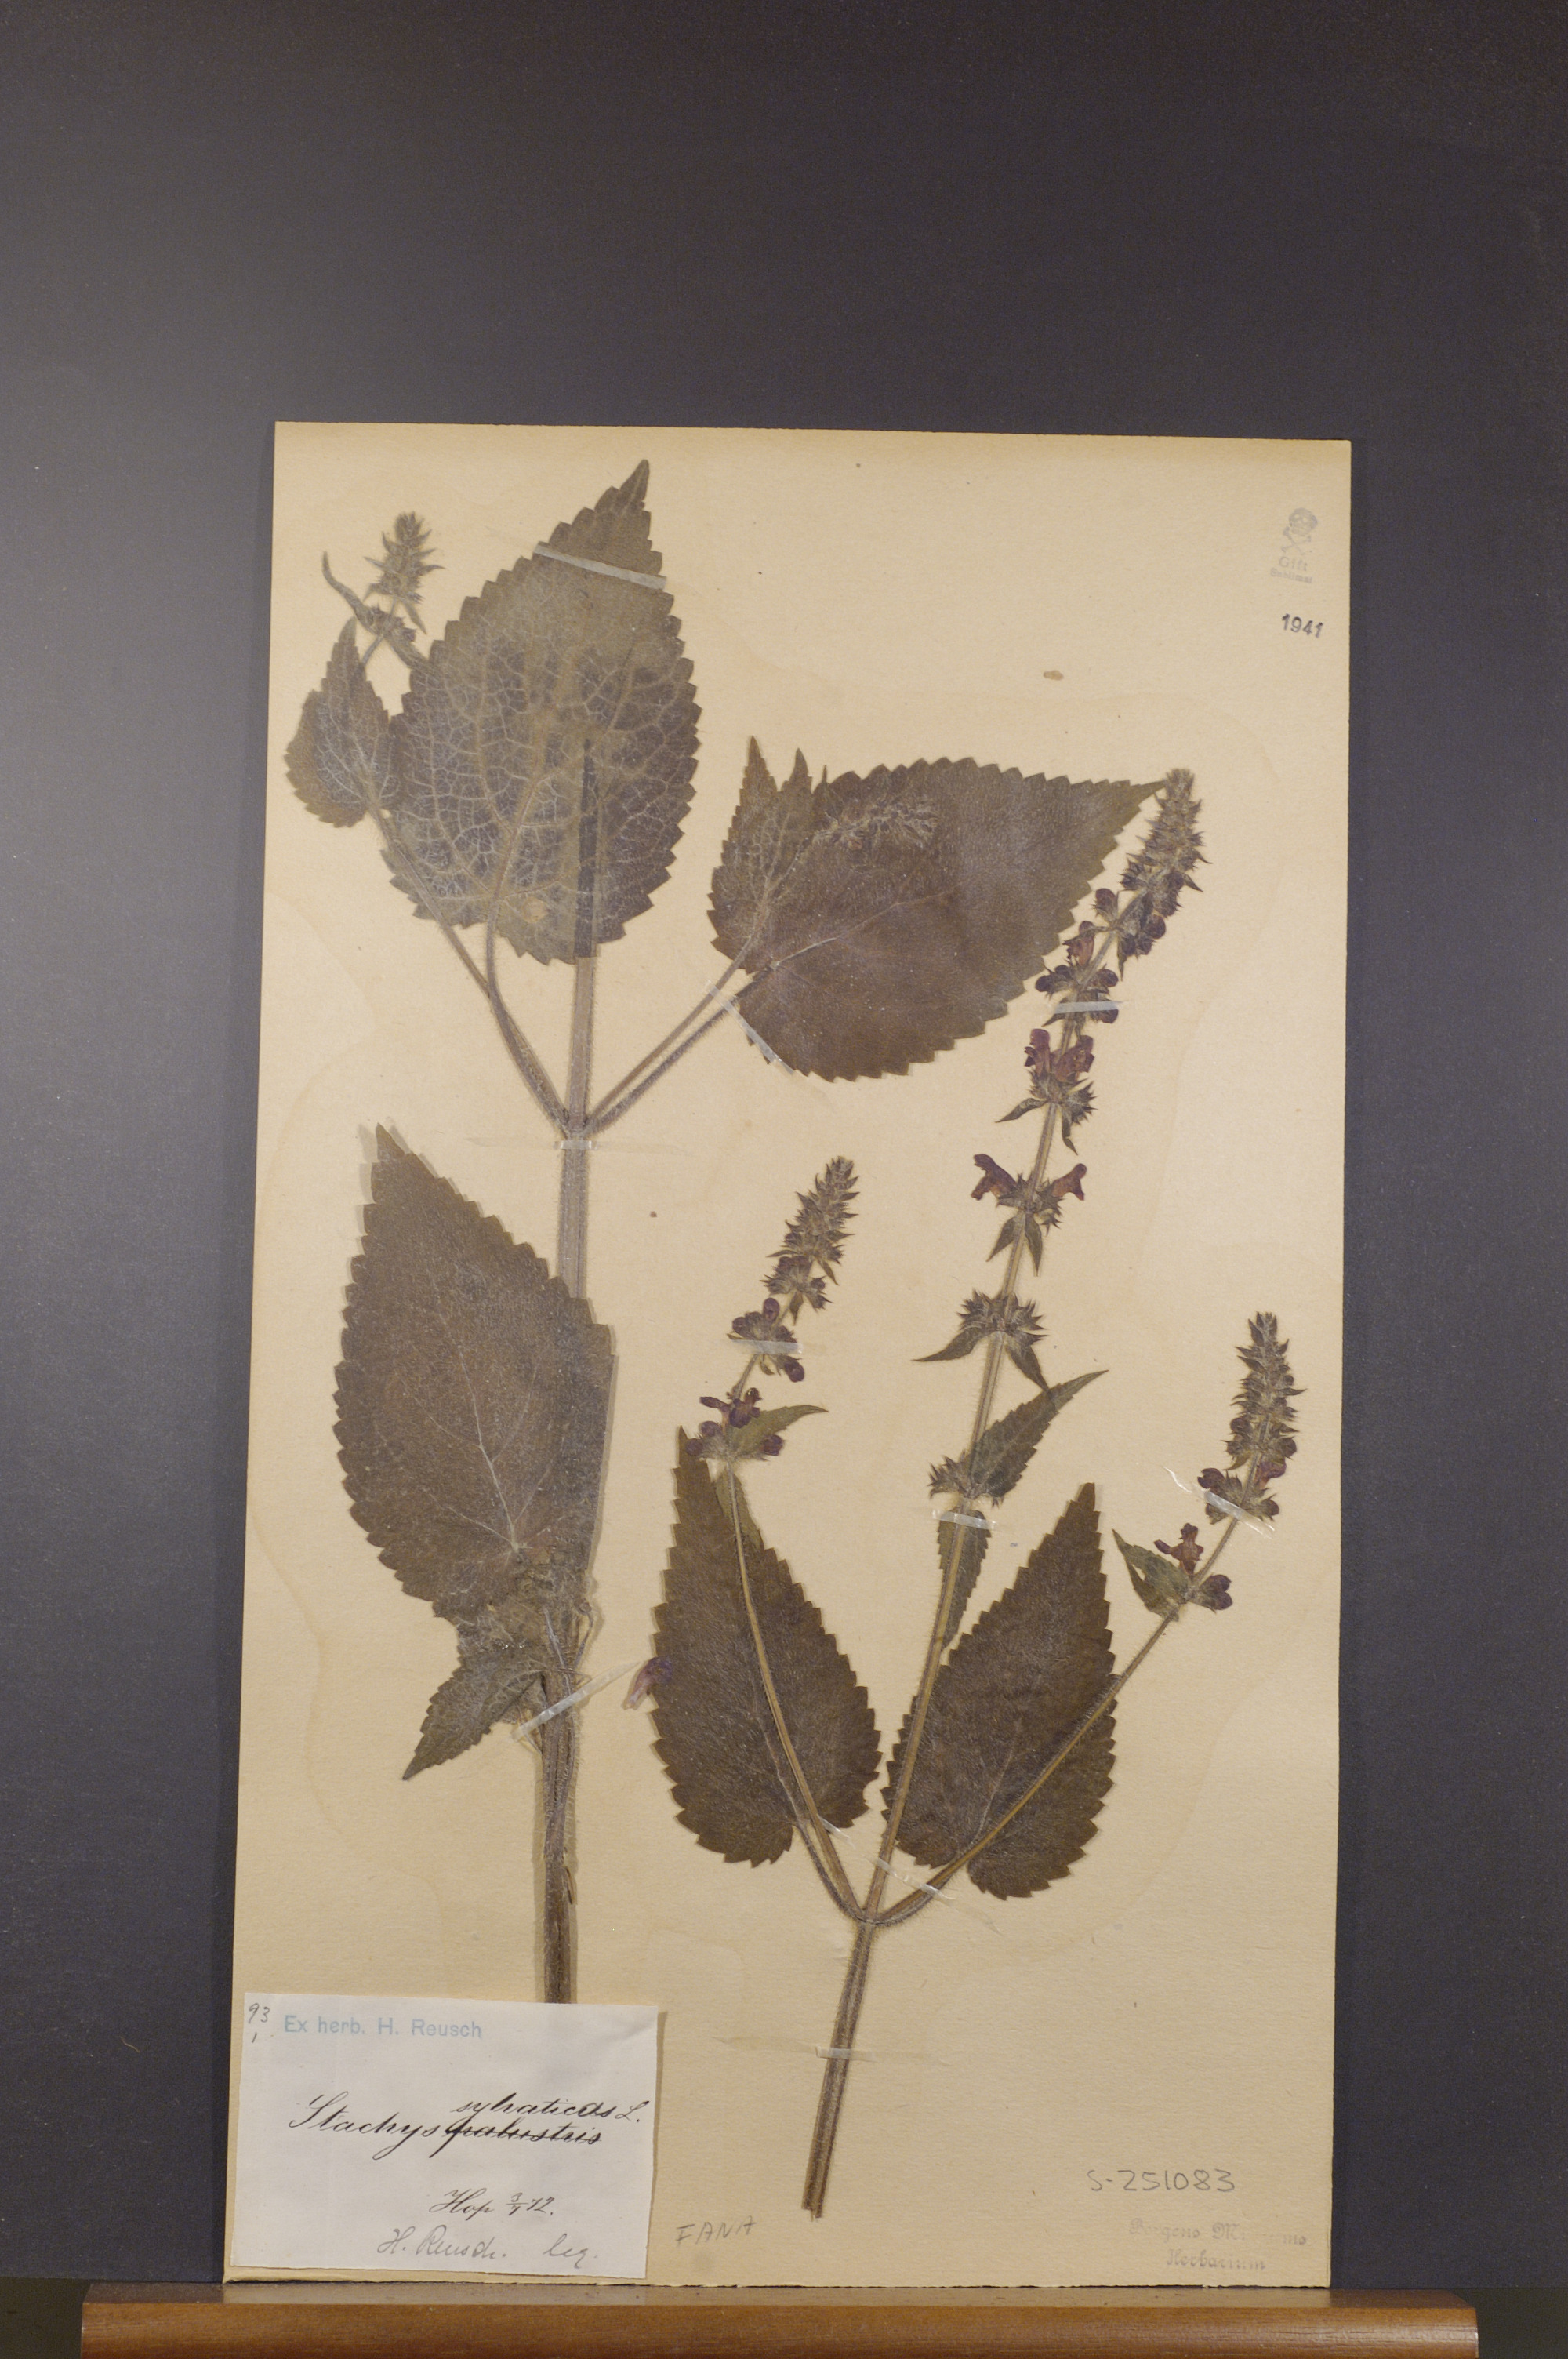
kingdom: Plantae
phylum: Tracheophyta
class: Magnoliopsida
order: Lamiales
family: Lamiaceae
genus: Stachys
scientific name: Stachys sylvatica
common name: Hedge woundwort
